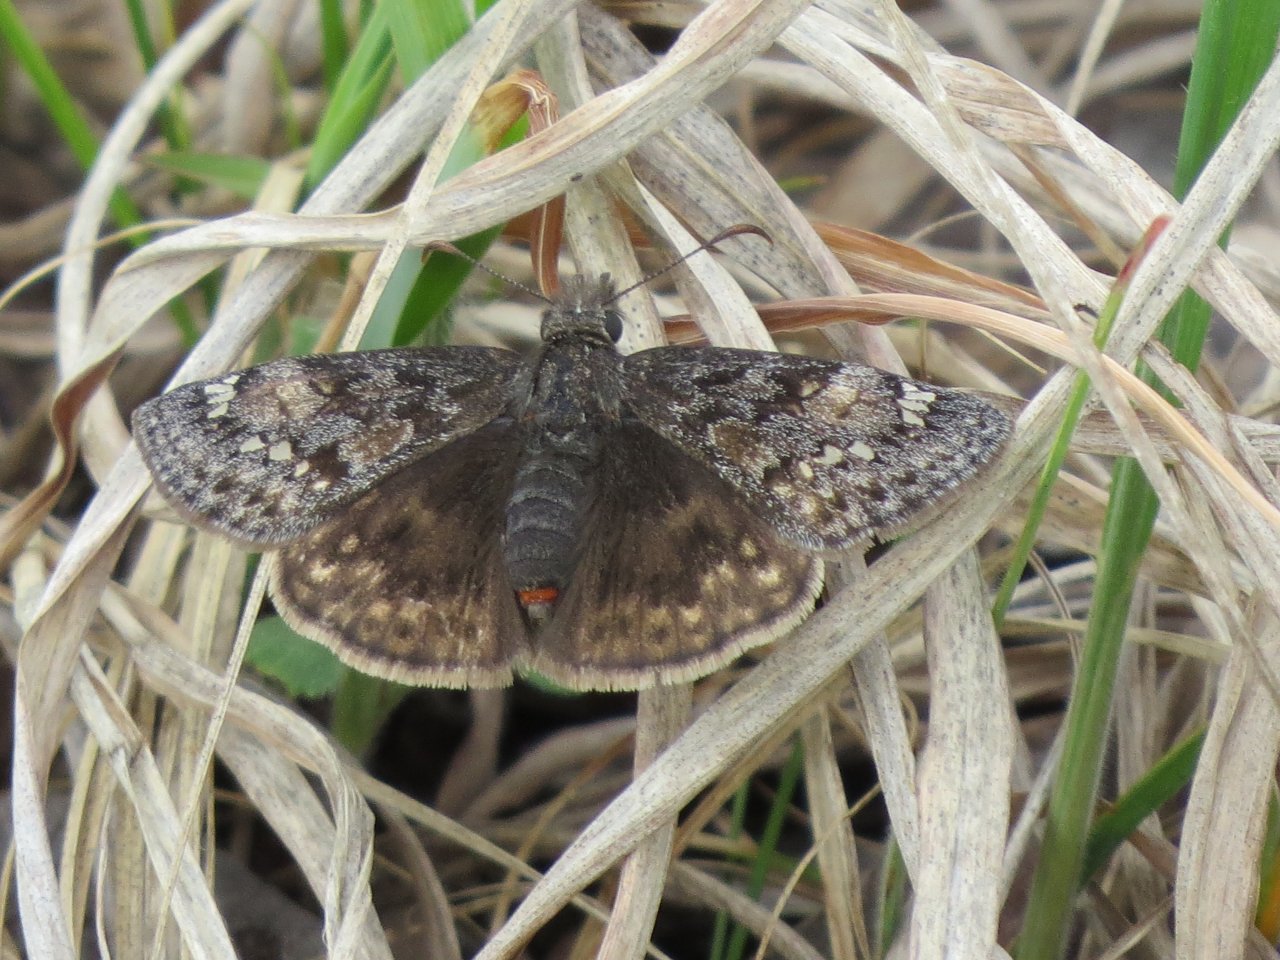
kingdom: Animalia
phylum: Arthropoda
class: Insecta
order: Lepidoptera
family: Hesperiidae
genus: Gesta
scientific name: Gesta
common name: Juvenal's Duskywing
